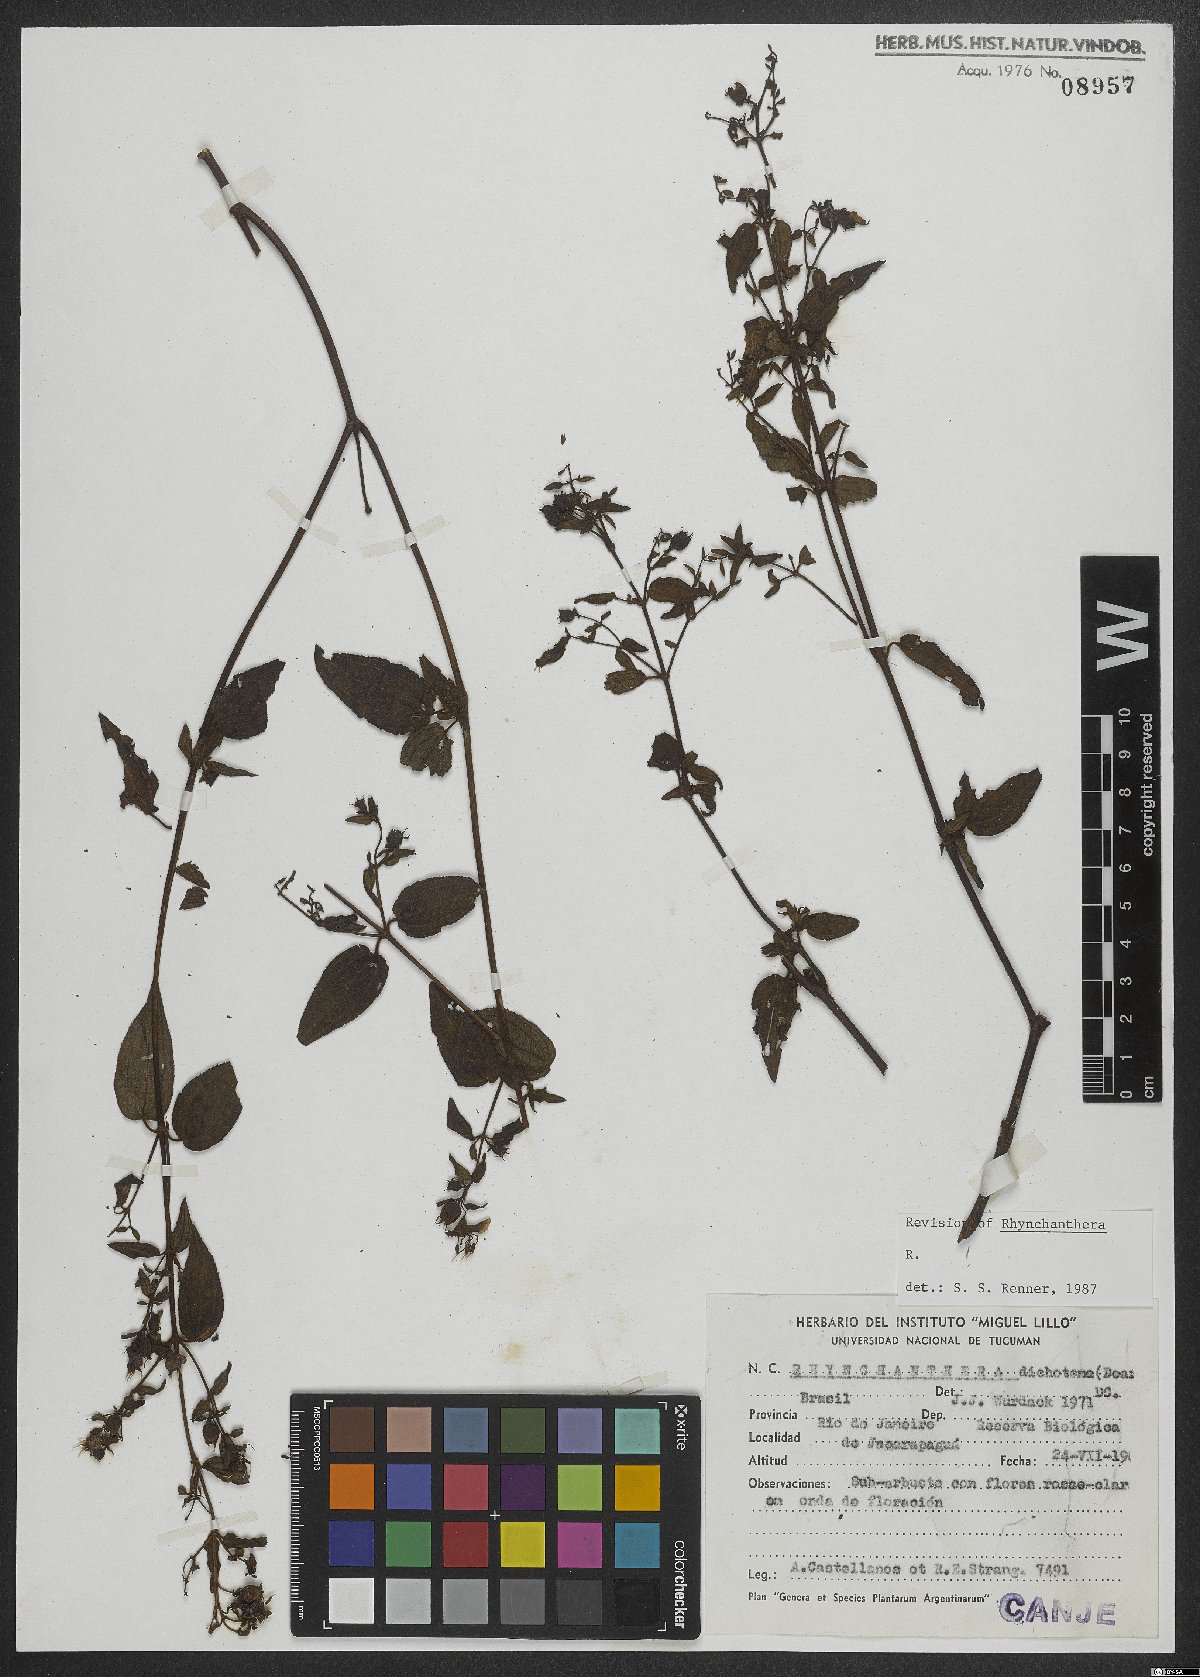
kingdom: Plantae
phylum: Tracheophyta
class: Magnoliopsida
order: Myrtales
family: Melastomataceae
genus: Rhynchanthera
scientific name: Rhynchanthera dichotoma
